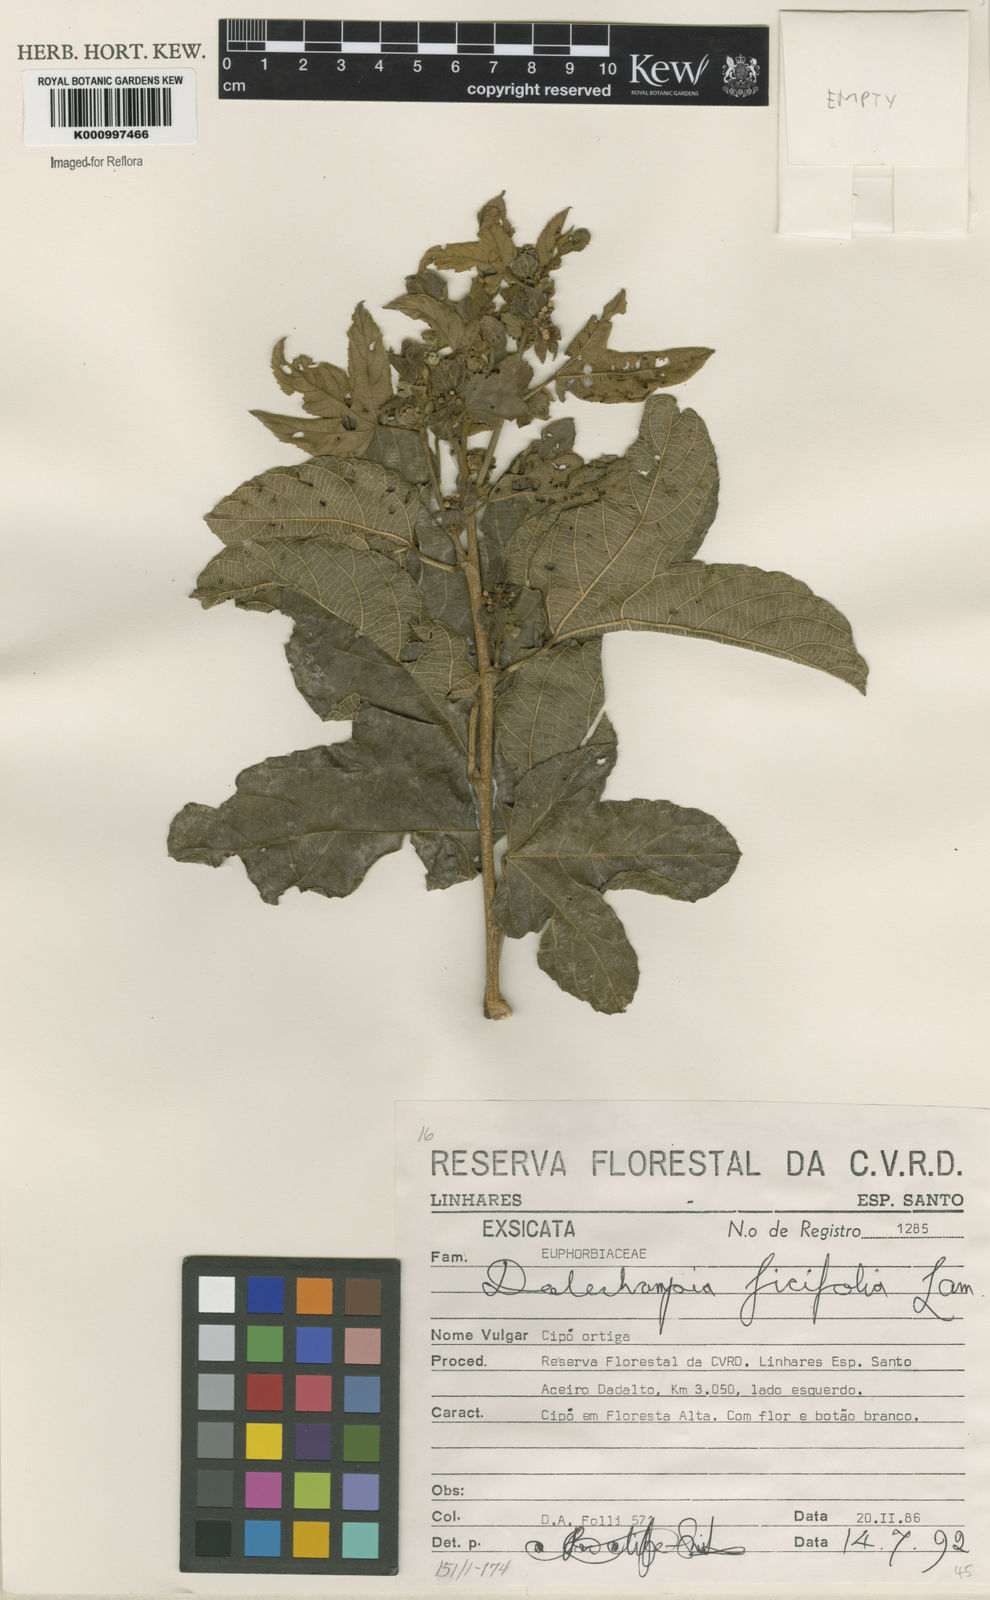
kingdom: Plantae
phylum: Tracheophyta
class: Magnoliopsida
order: Malpighiales
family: Euphorbiaceae
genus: Dalechampia
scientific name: Dalechampia ficifolia
